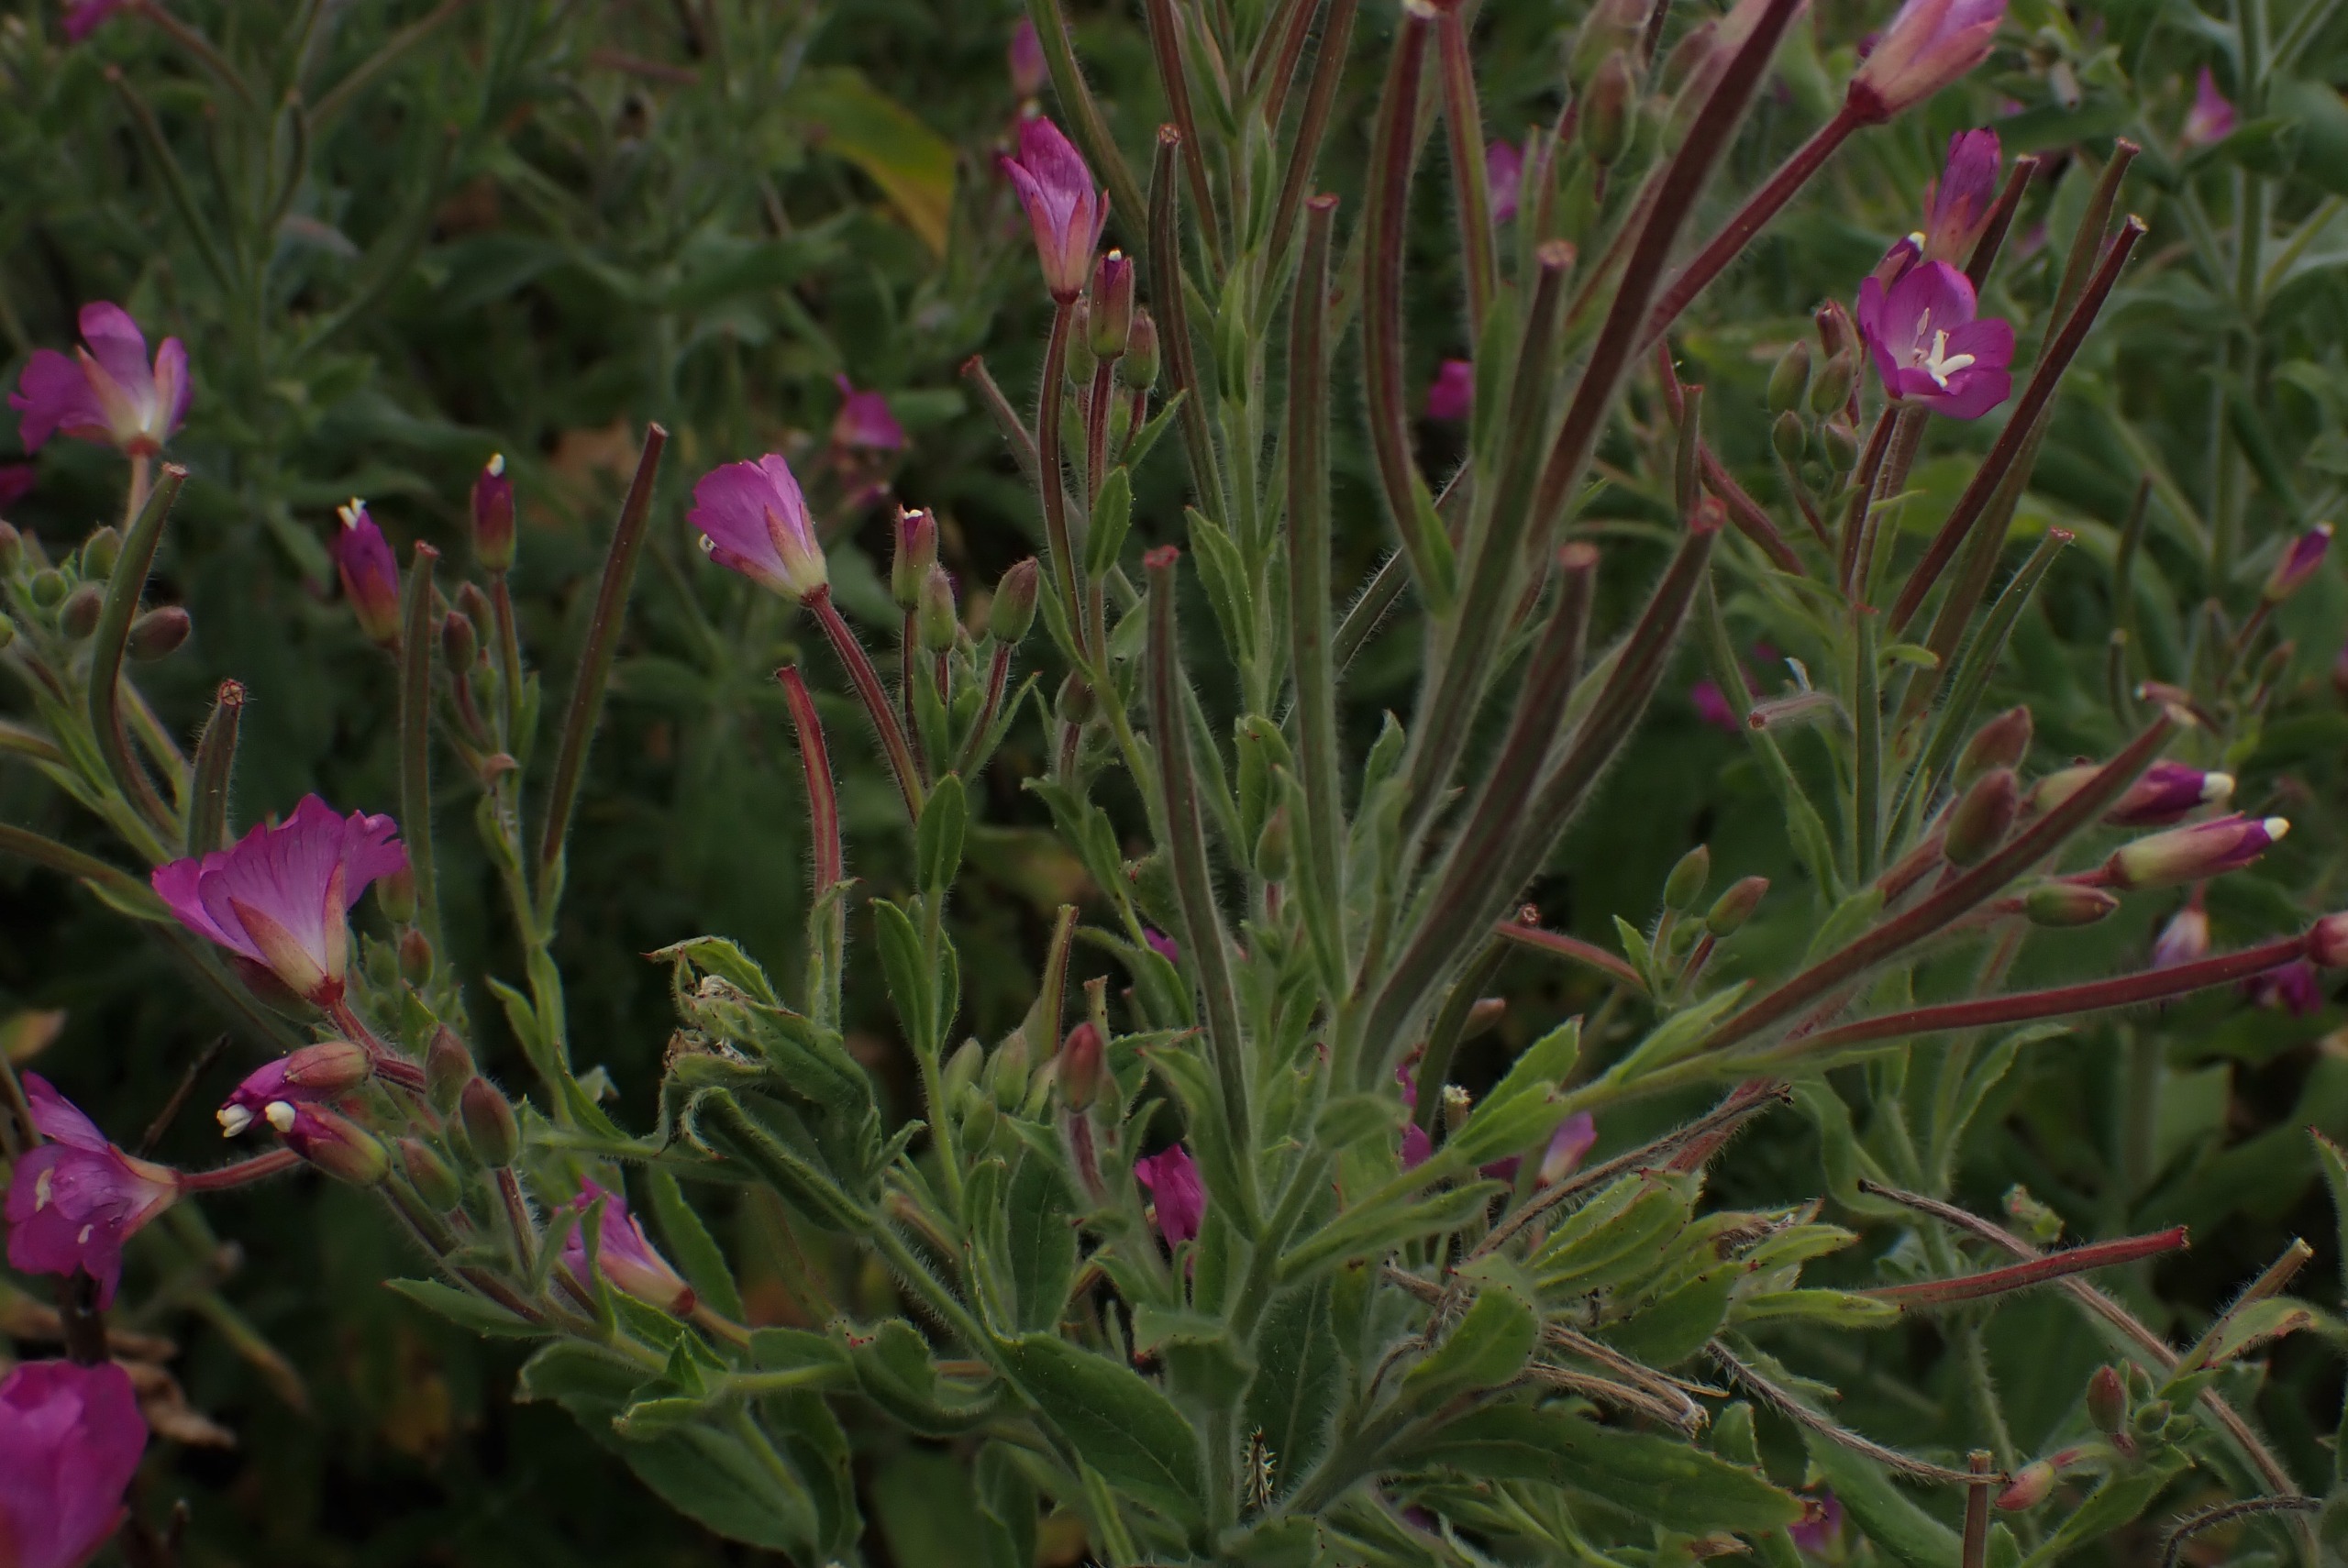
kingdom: Plantae
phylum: Tracheophyta
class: Magnoliopsida
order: Myrtales
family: Onagraceae
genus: Epilobium
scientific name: Epilobium hirsutum
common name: Lådden dueurt
